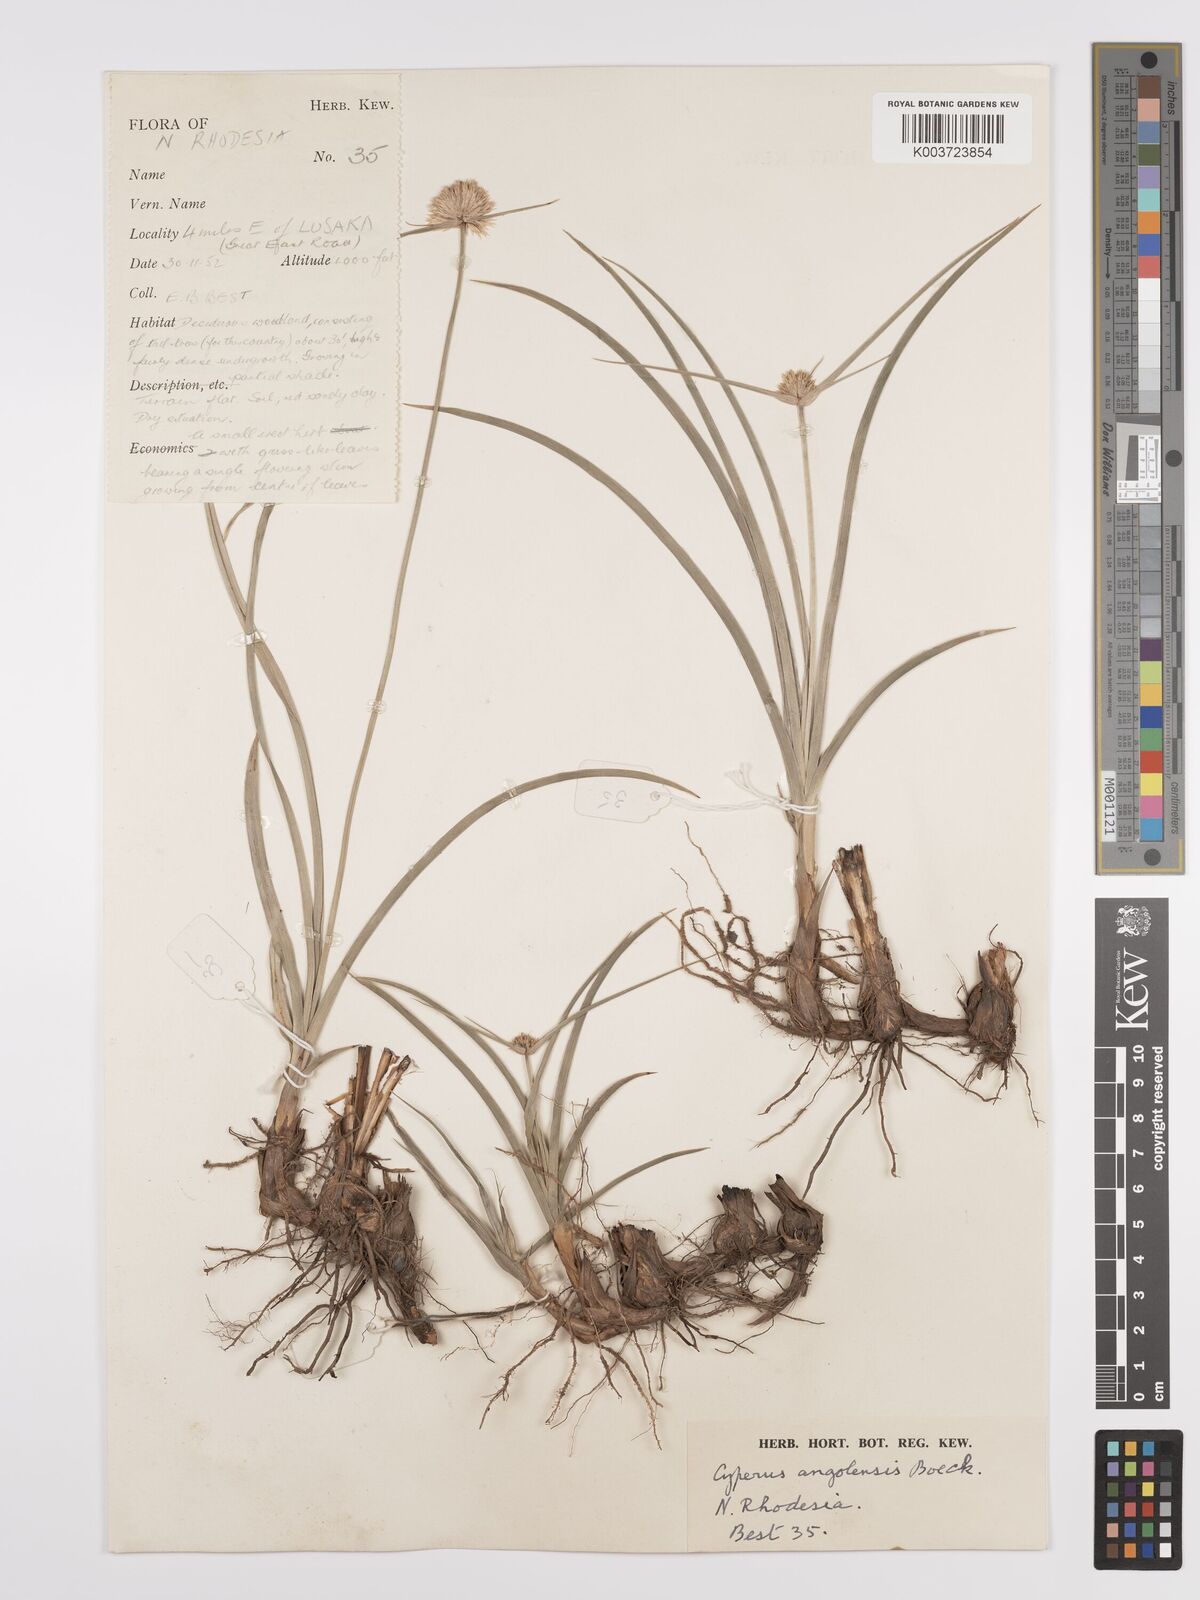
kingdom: Plantae
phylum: Tracheophyta
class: Liliopsida
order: Poales
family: Cyperaceae
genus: Cyperus
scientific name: Cyperus angolensis
